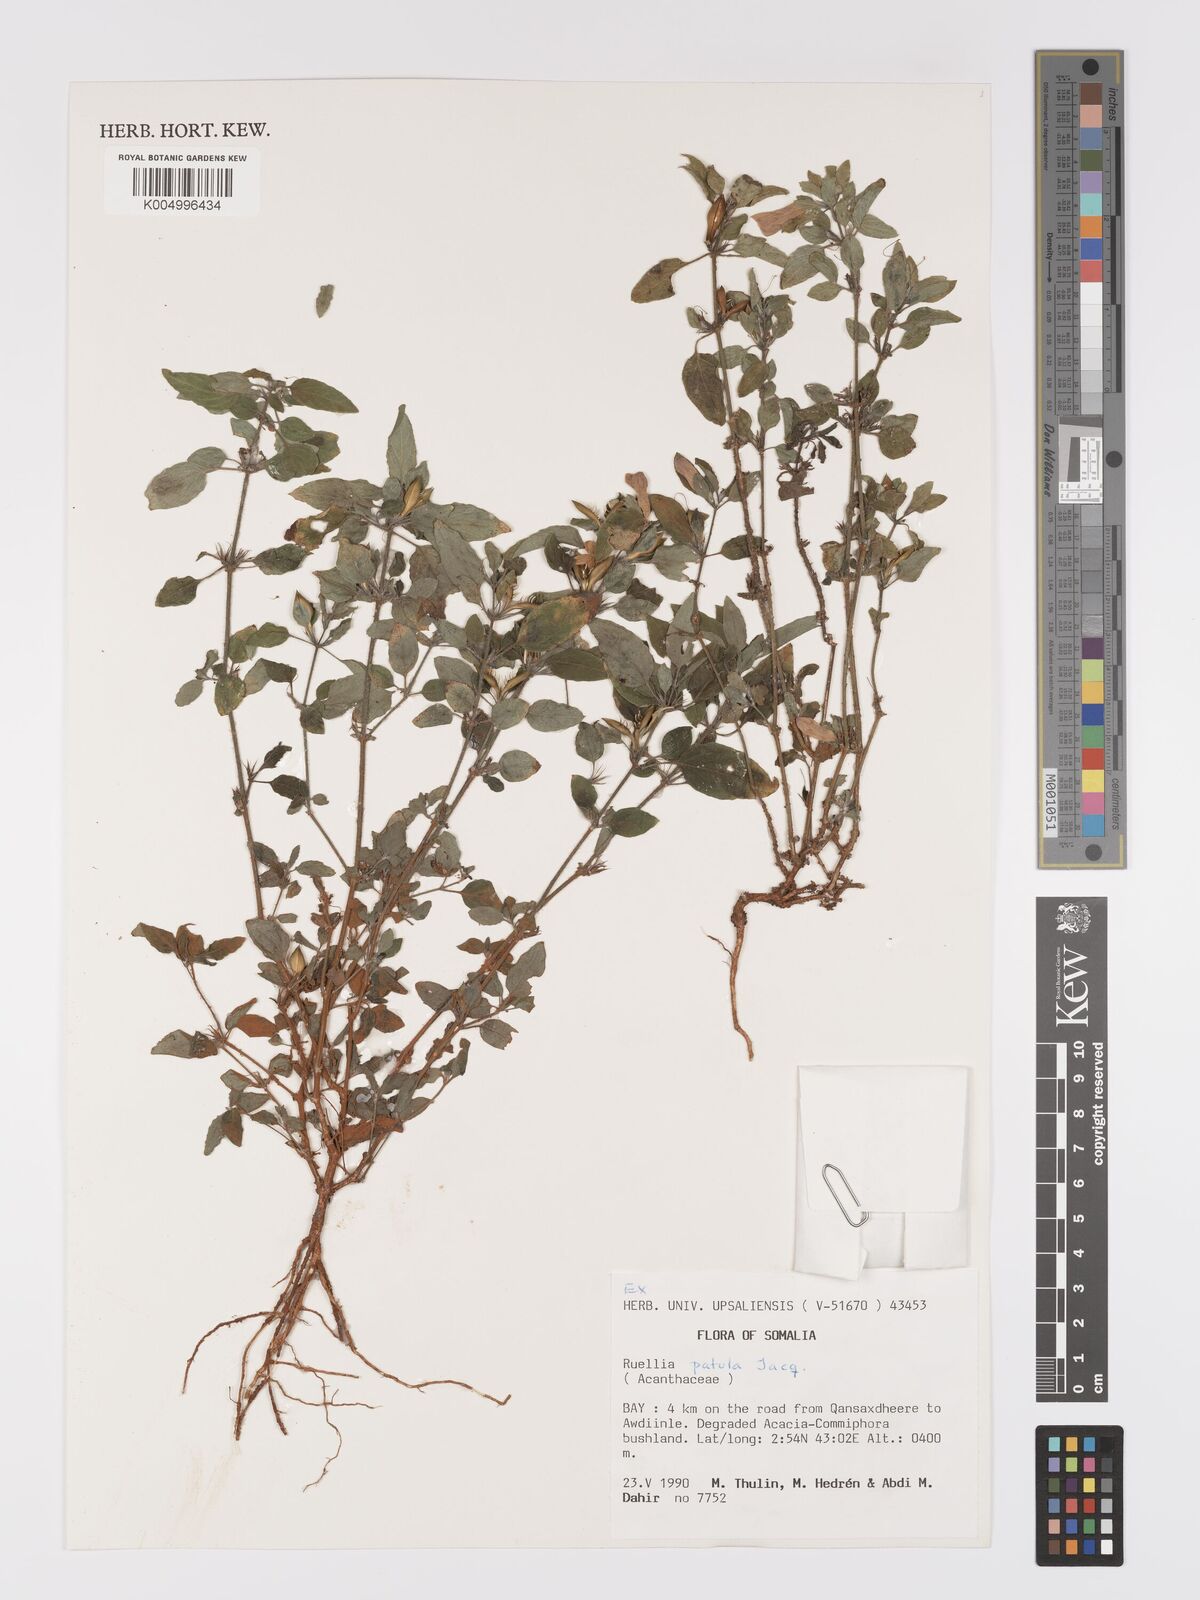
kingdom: Plantae
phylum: Tracheophyta
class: Magnoliopsida
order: Lamiales
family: Acanthaceae
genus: Ruellia
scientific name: Ruellia patula
